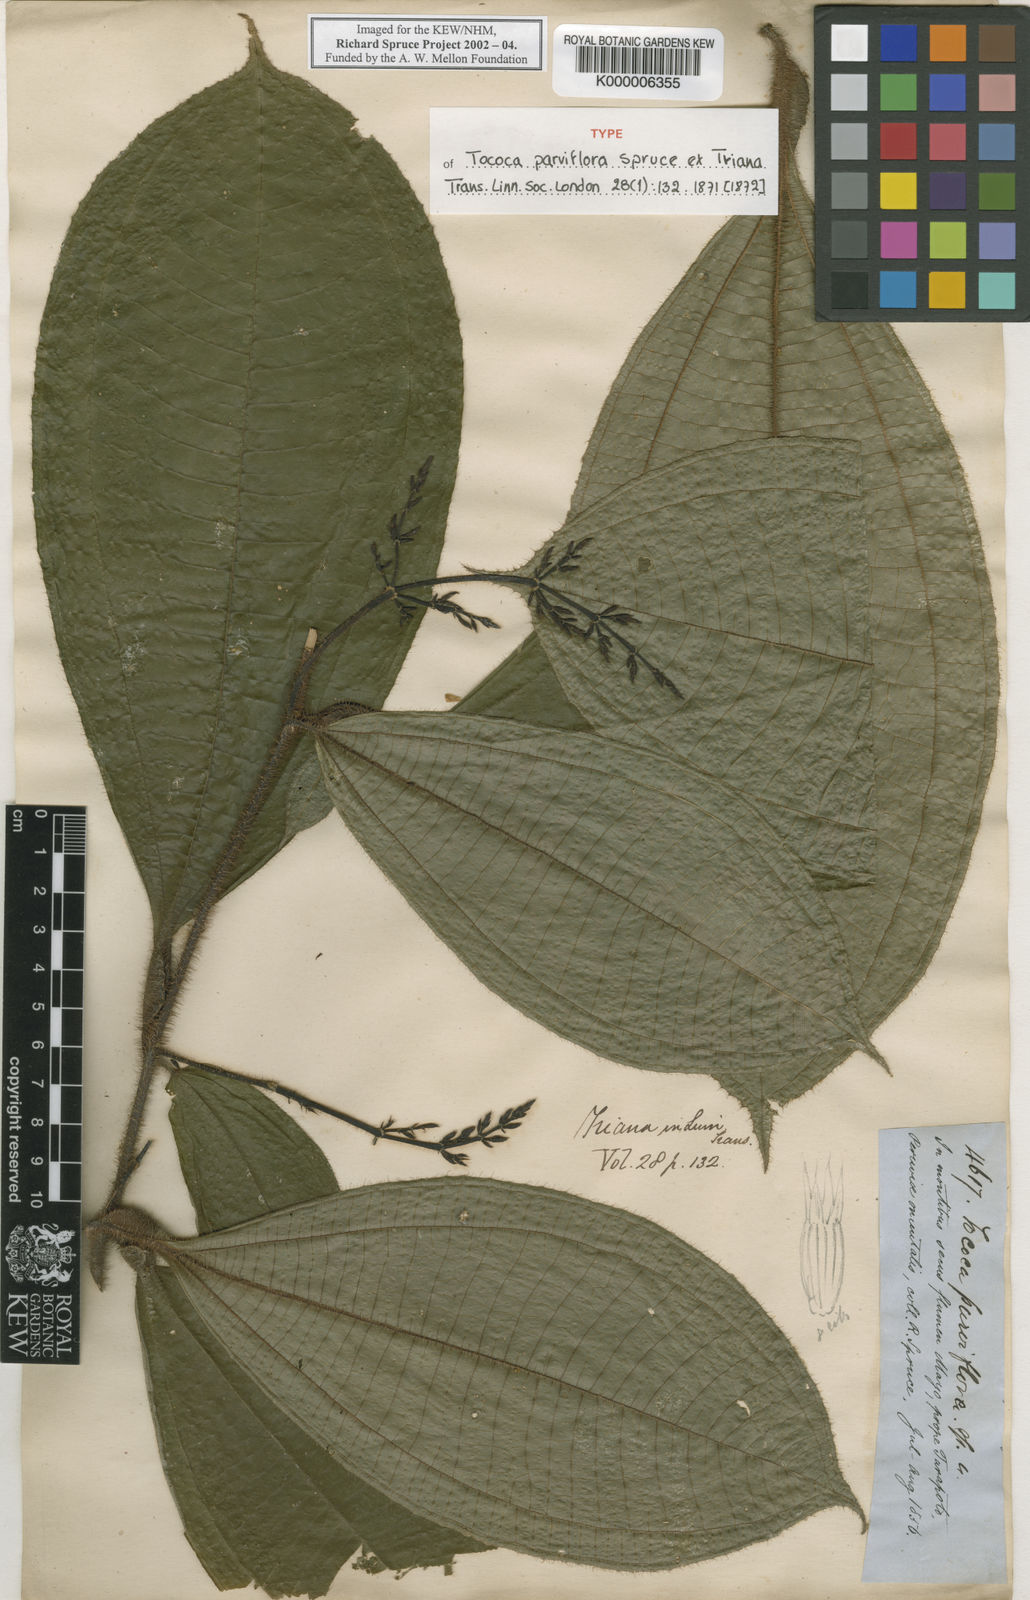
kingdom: Plantae
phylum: Tracheophyta
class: Magnoliopsida
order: Myrtales
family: Melastomataceae
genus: Miconia
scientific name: Miconia manserichensis
